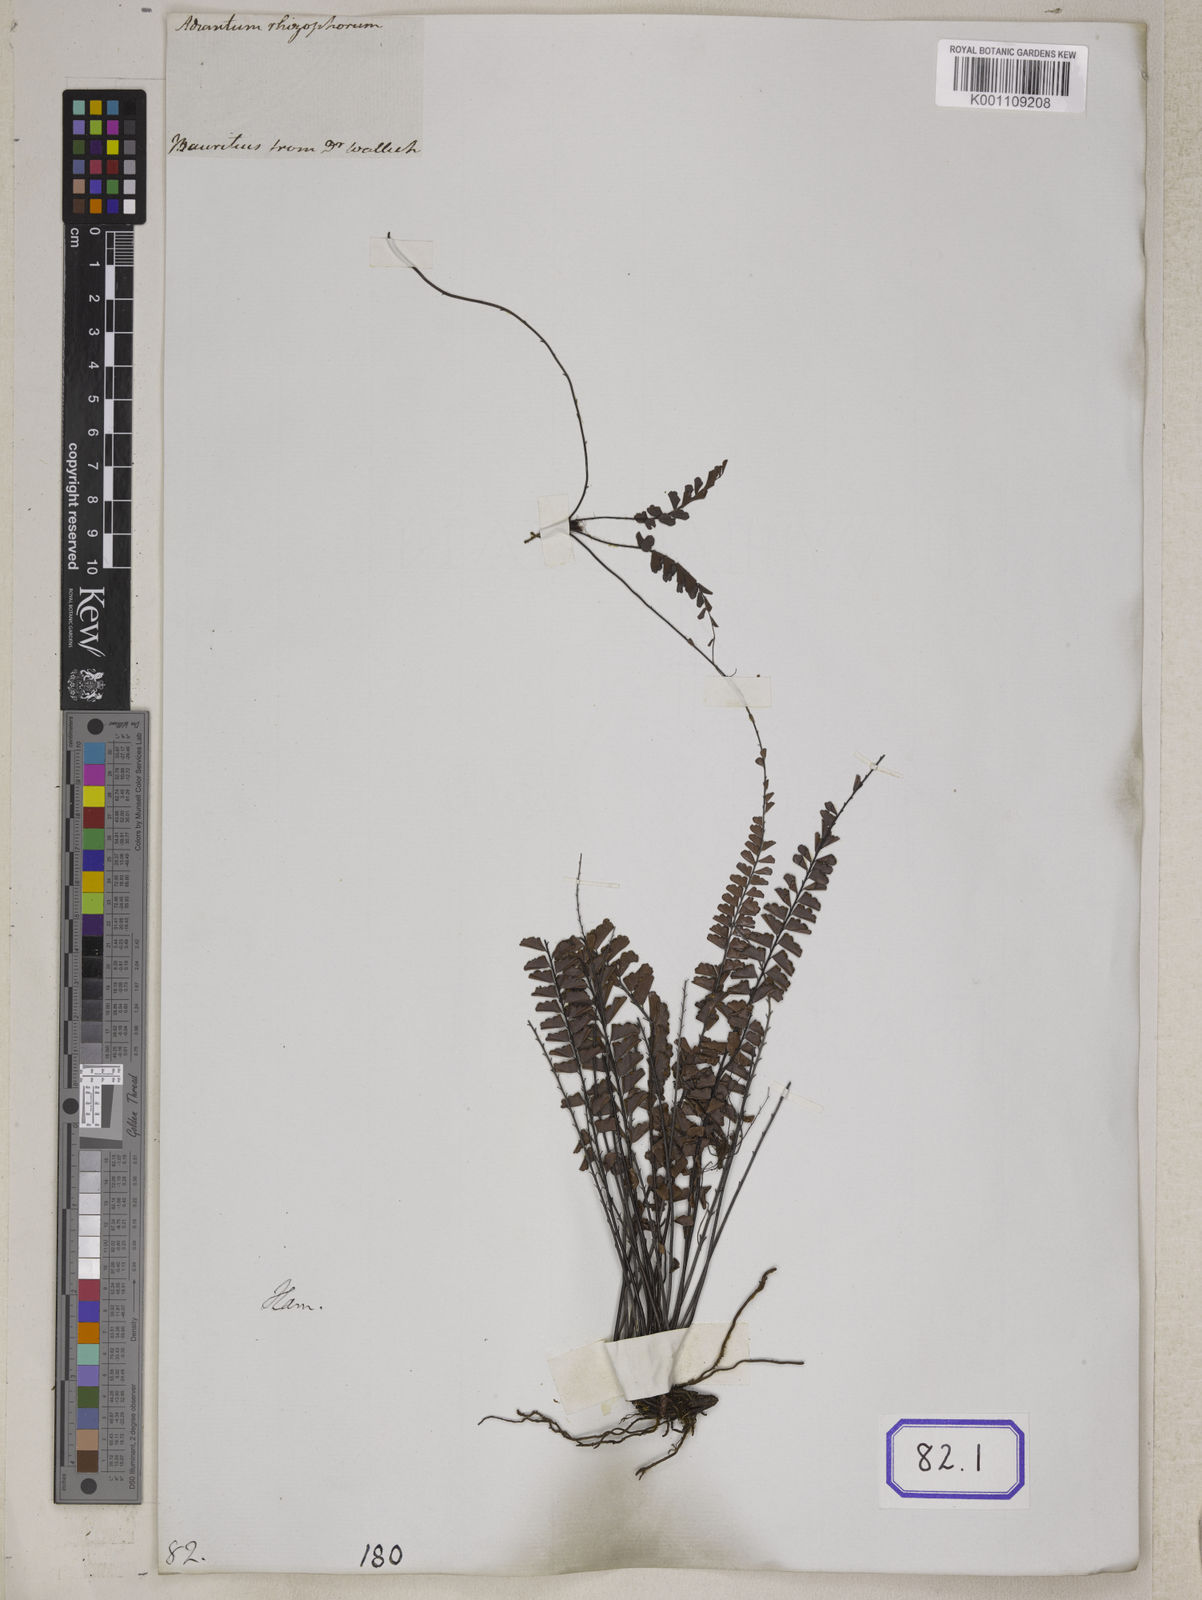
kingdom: Plantae
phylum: Tracheophyta
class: Polypodiopsida
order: Polypodiales
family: Pteridaceae
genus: Adiantum
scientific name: Adiantum rhizophorum
